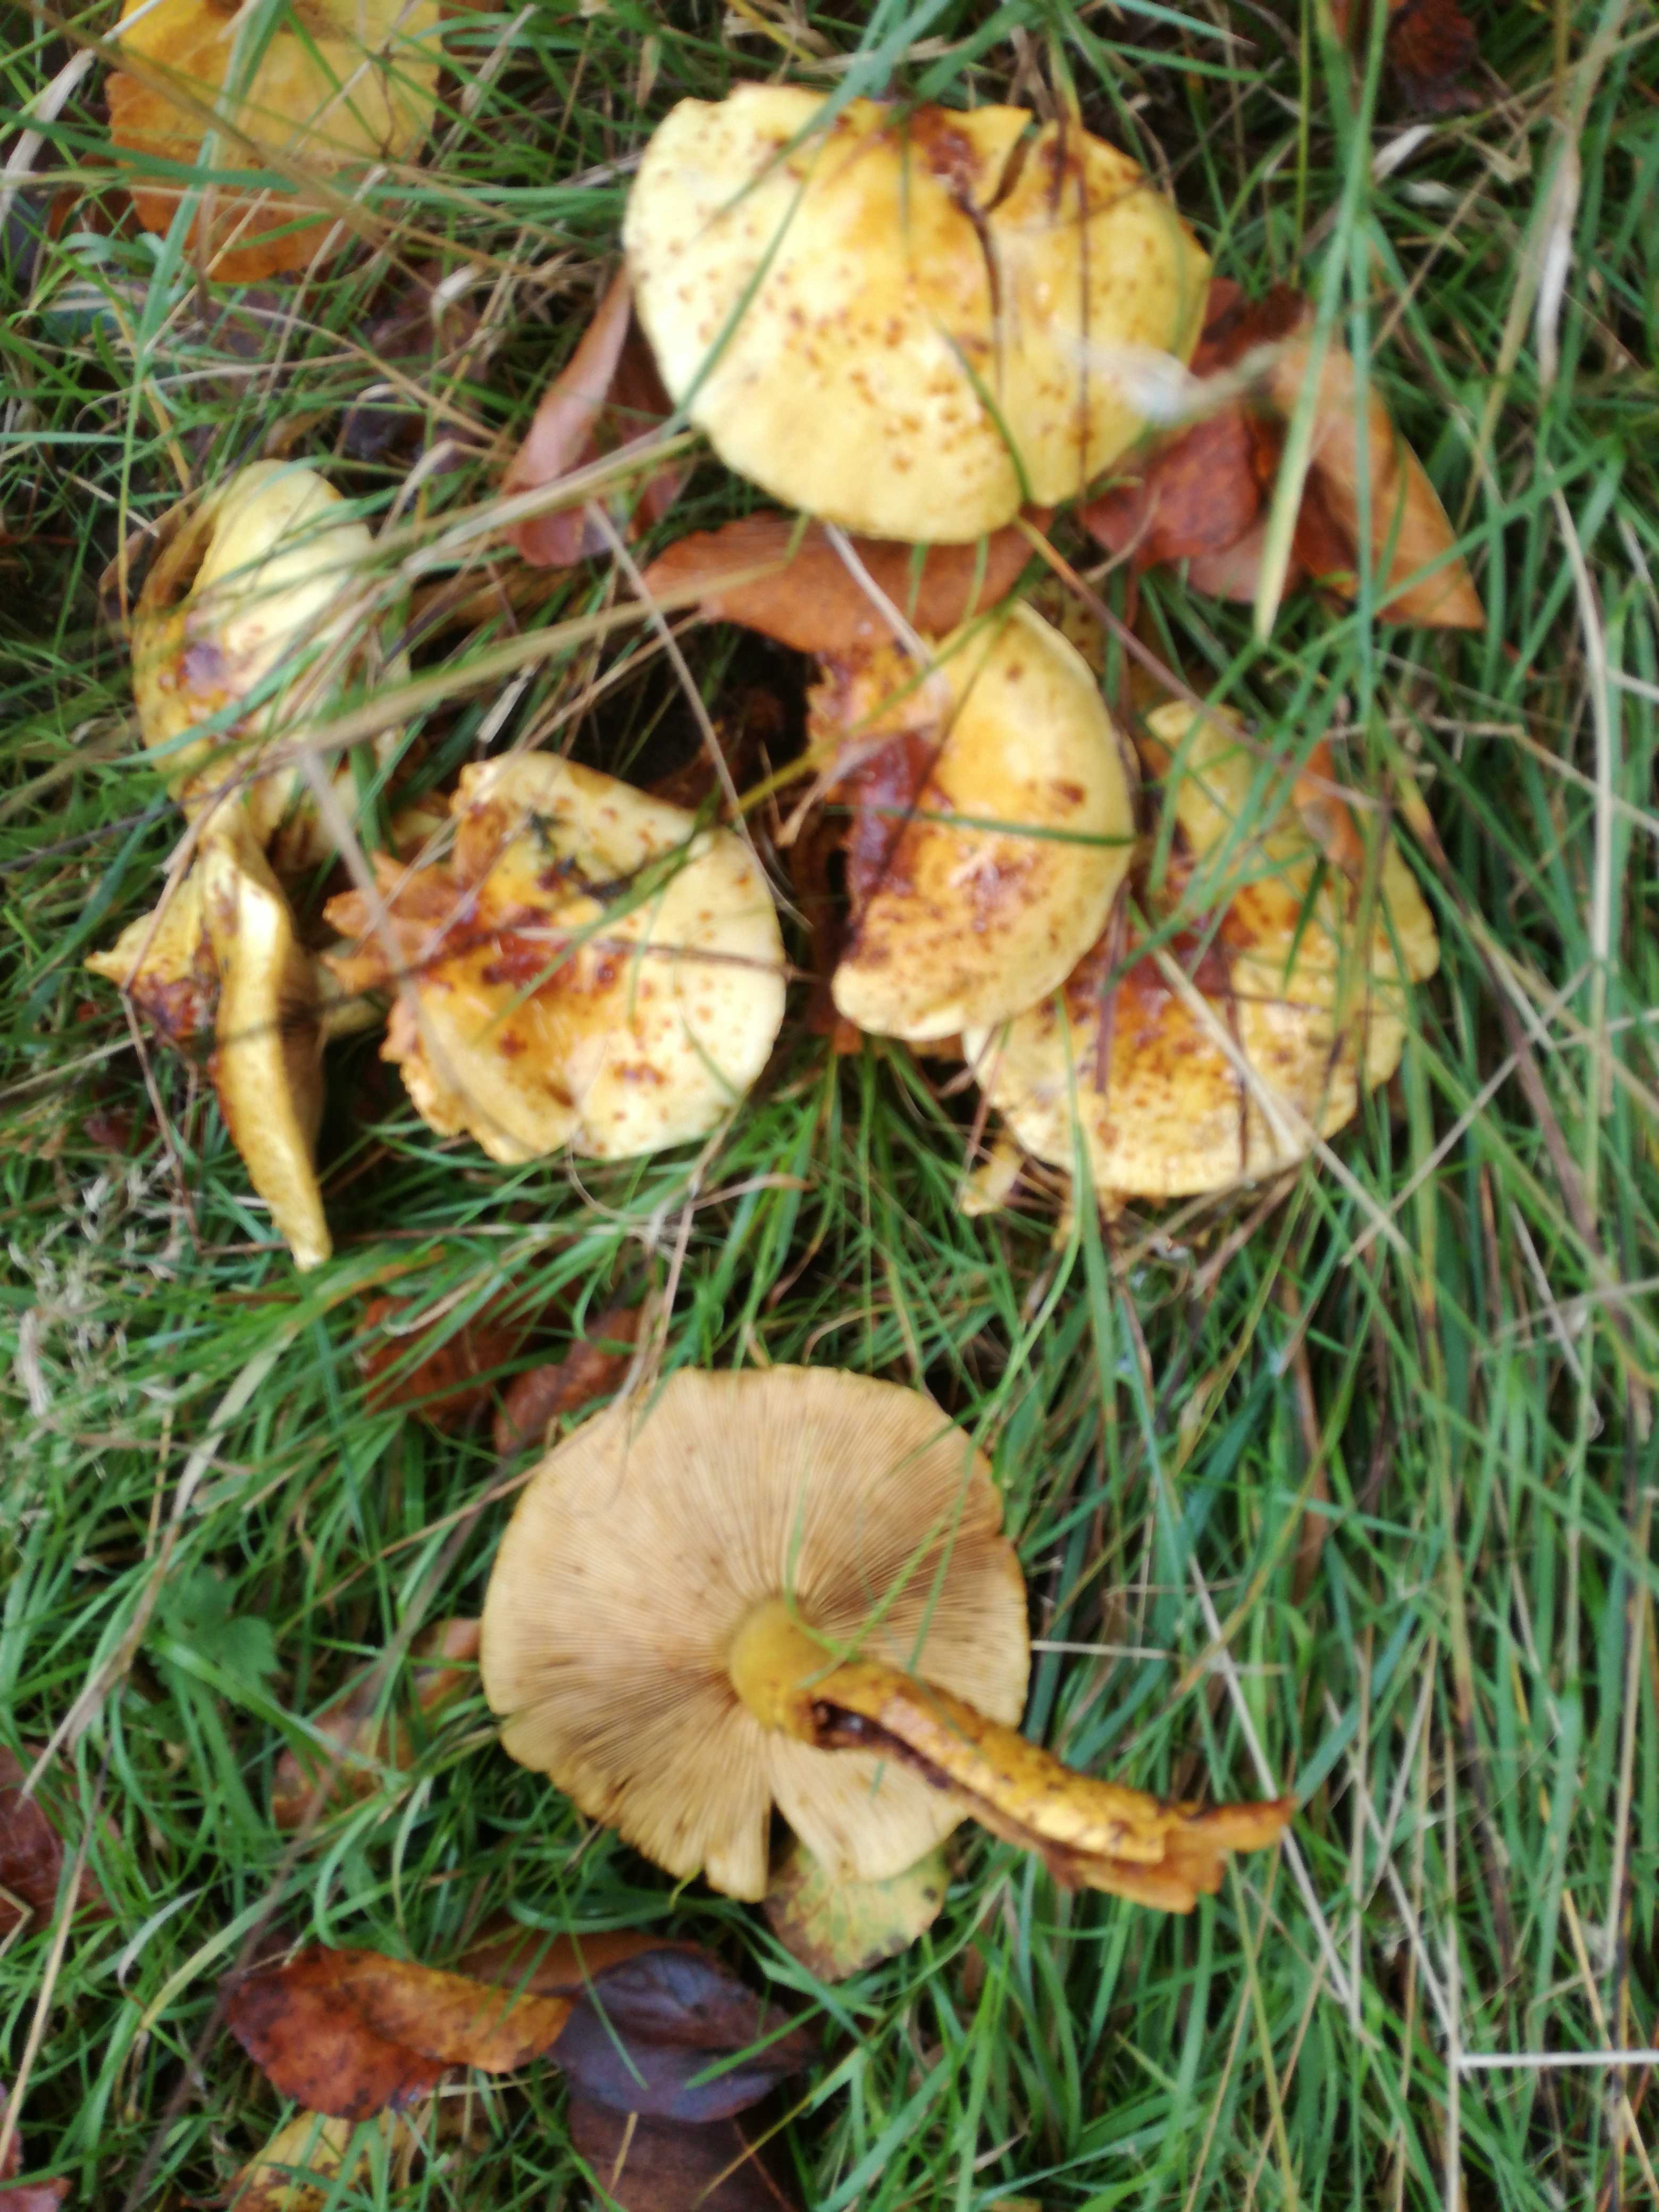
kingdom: Fungi
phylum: Basidiomycota
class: Agaricomycetes
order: Agaricales
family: Strophariaceae
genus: Pholiota
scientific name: Pholiota
